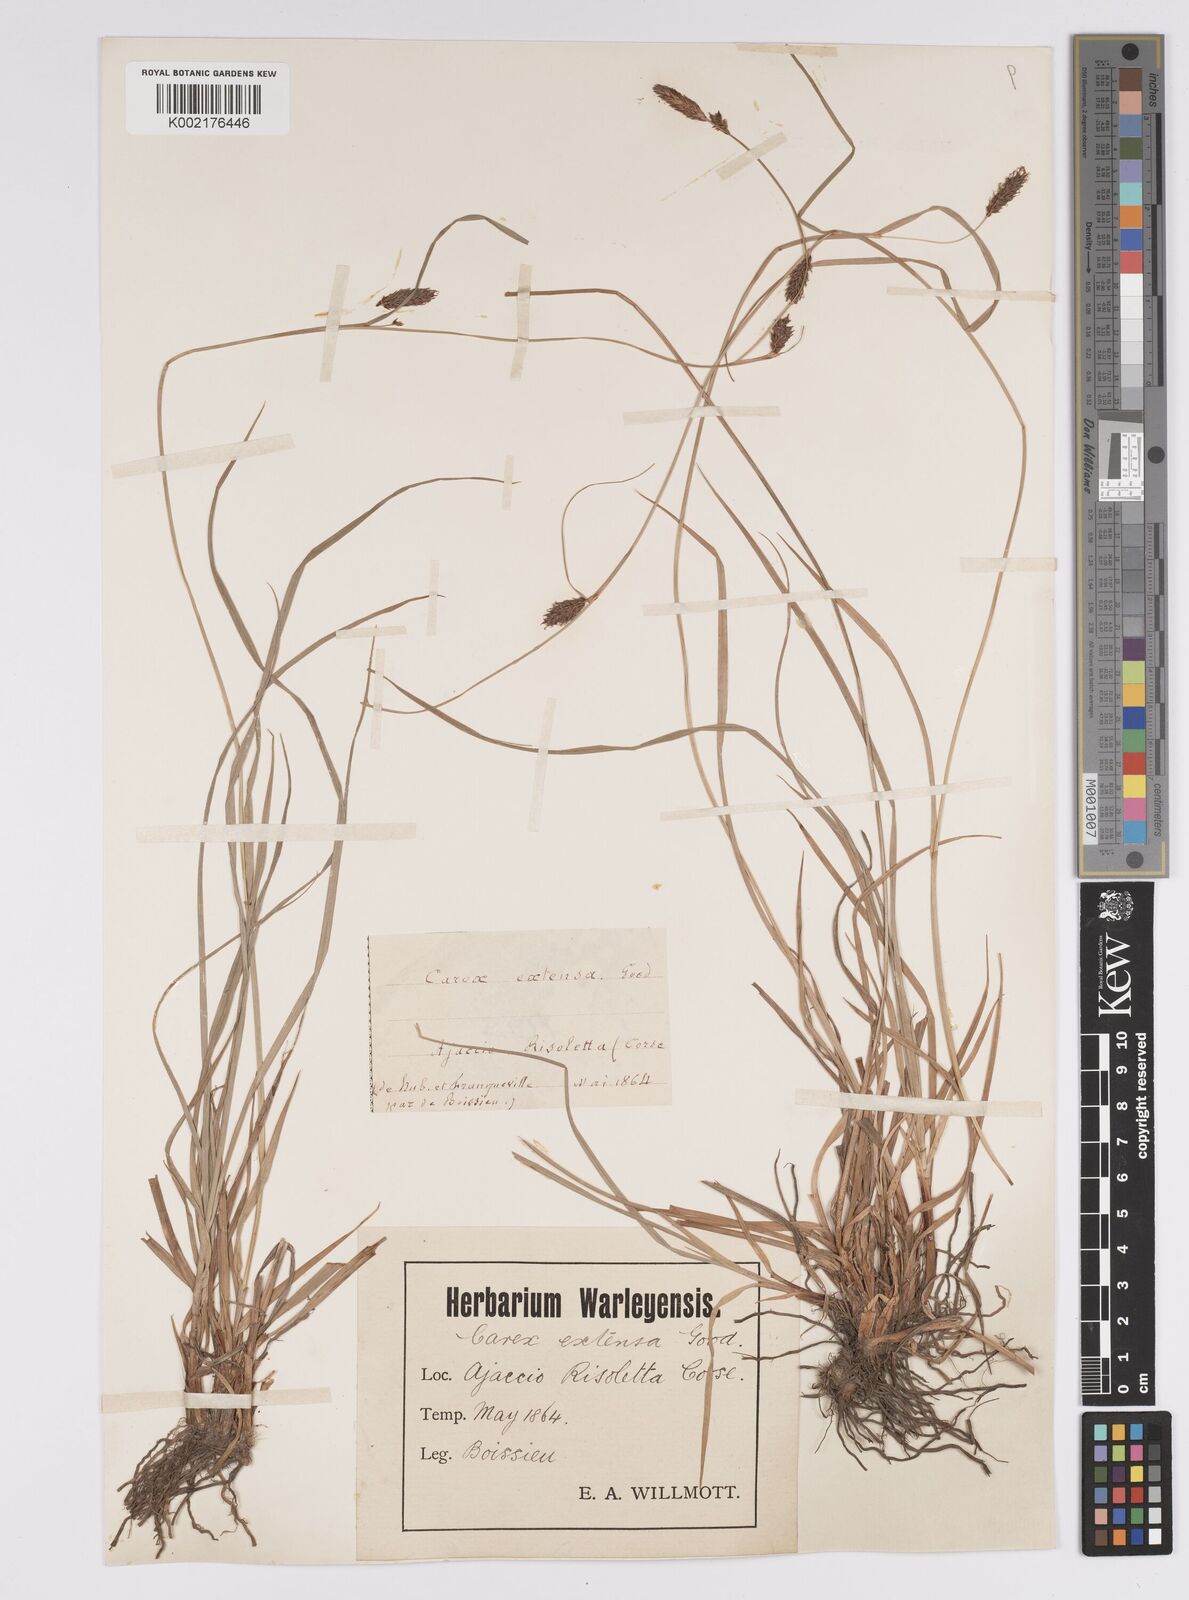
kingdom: Plantae
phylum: Tracheophyta
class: Liliopsida
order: Poales
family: Cyperaceae
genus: Carex
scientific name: Carex distans
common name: Distant sedge
